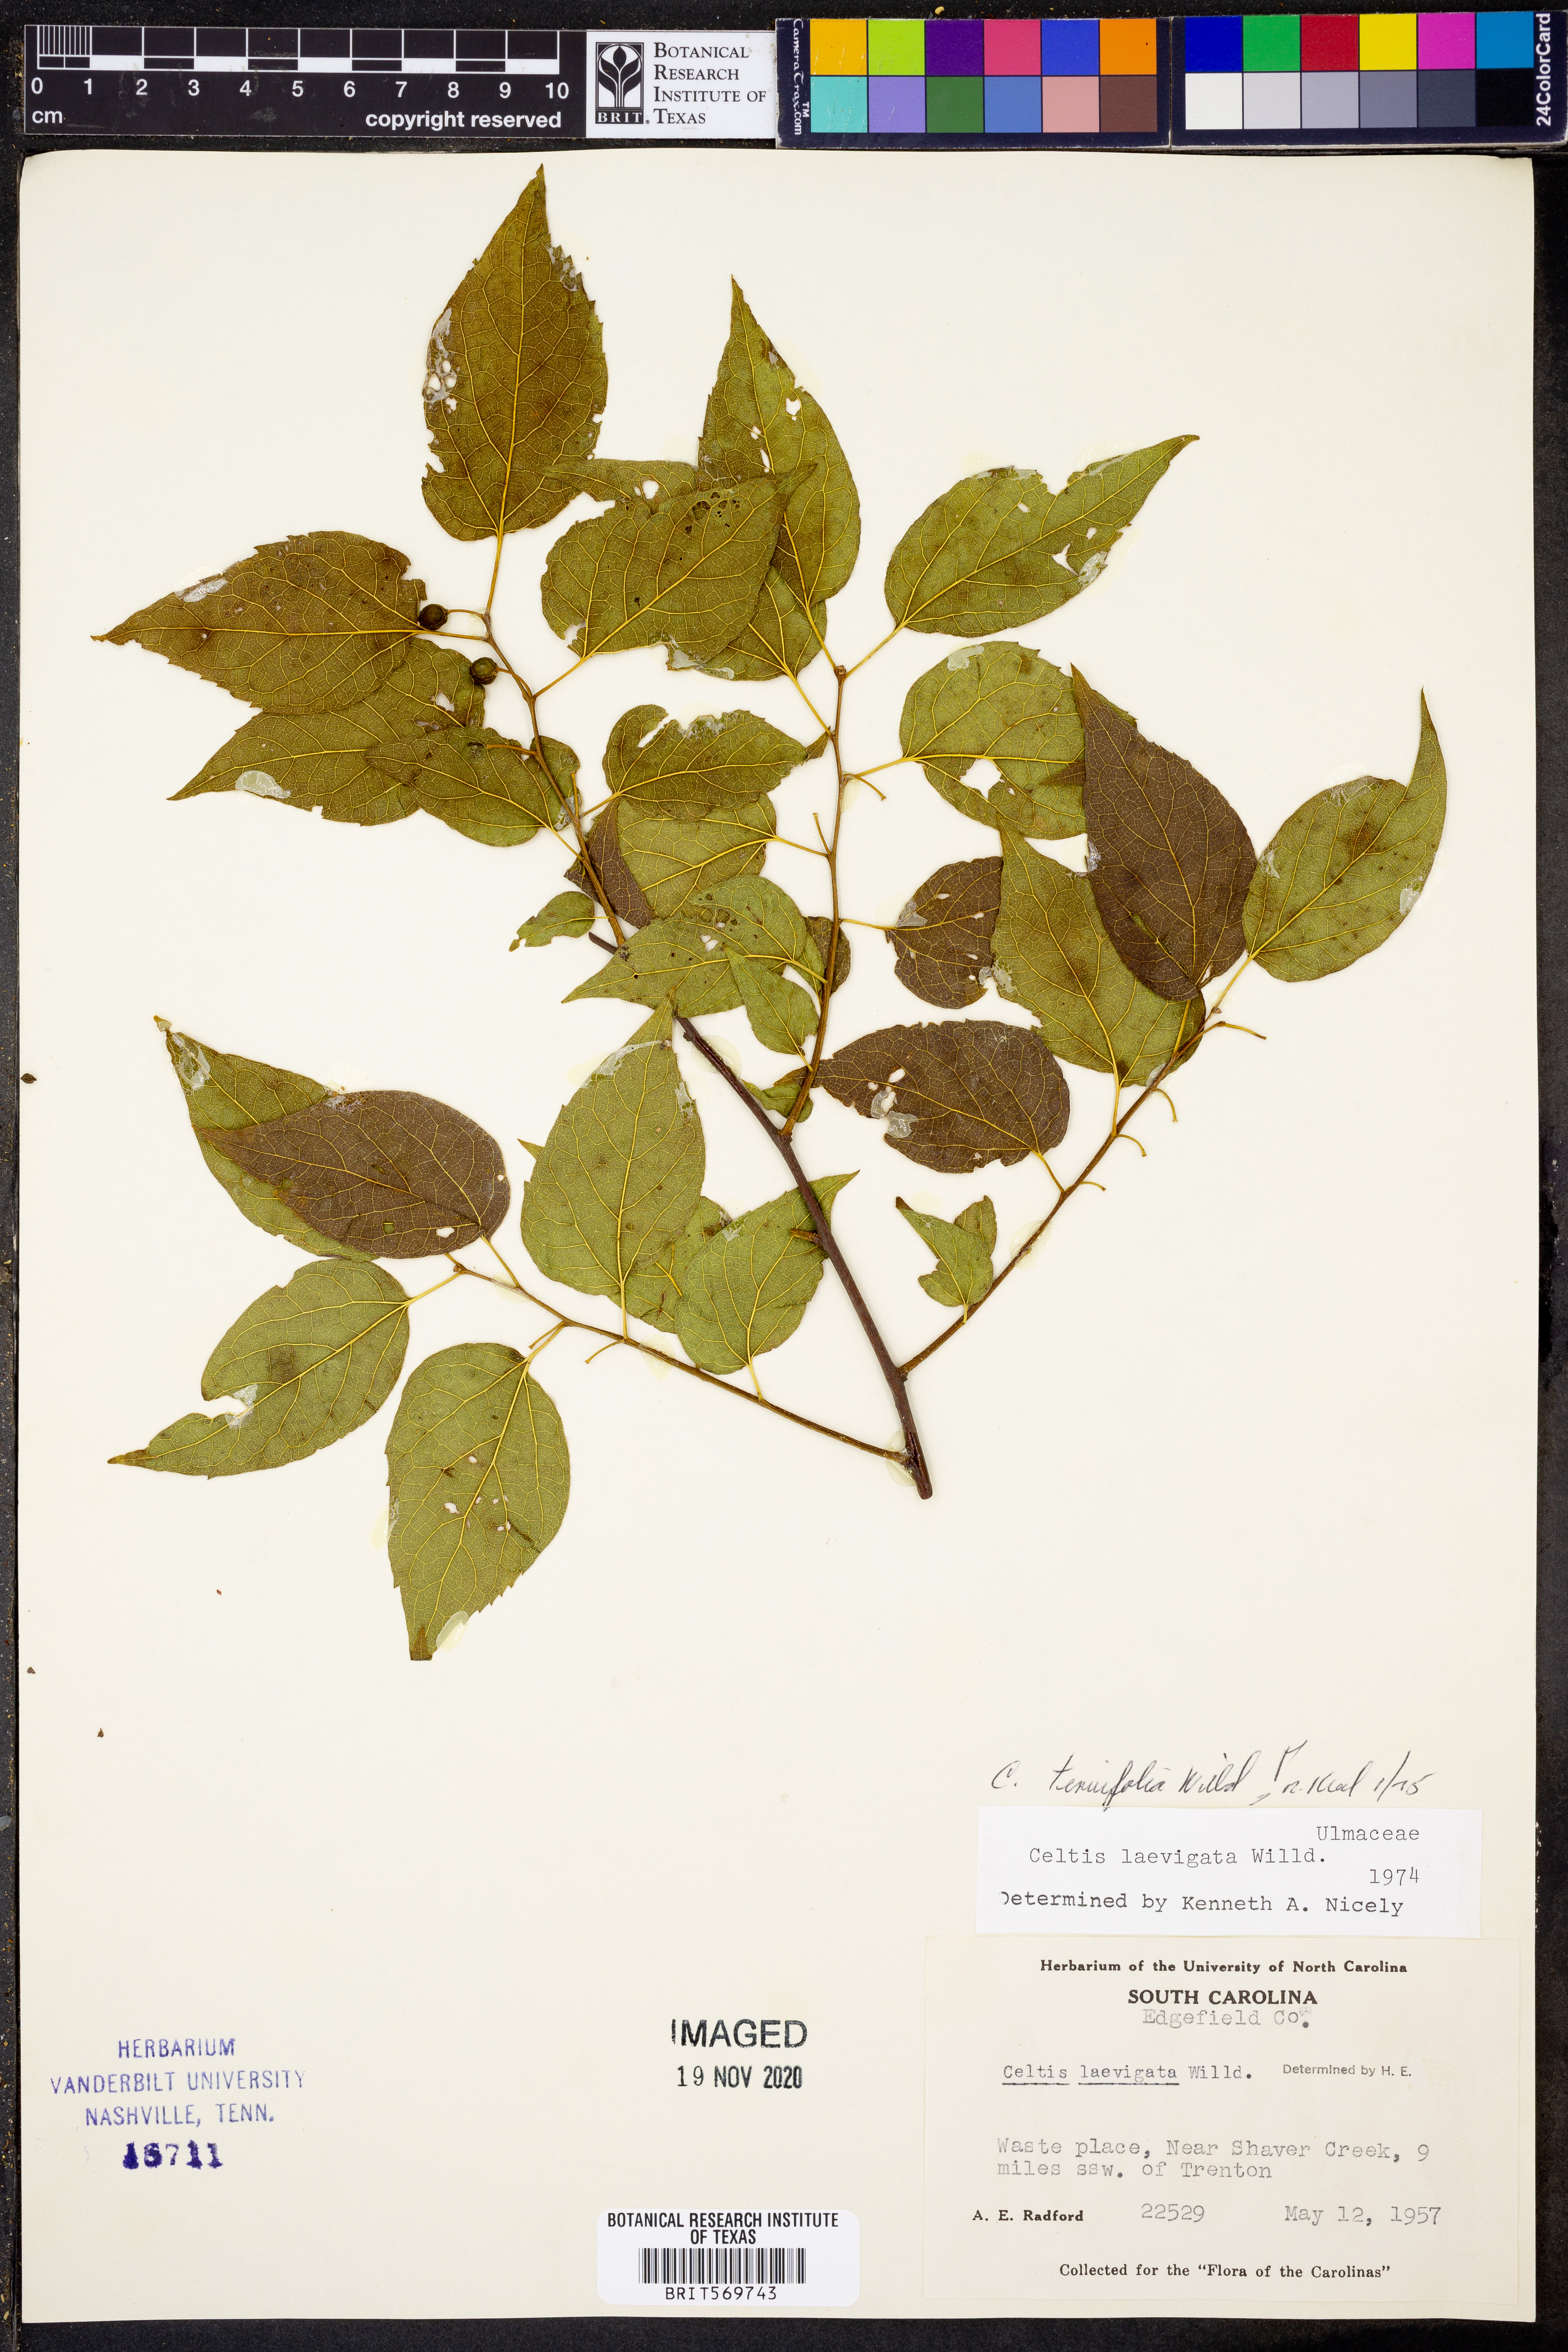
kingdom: Plantae
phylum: Tracheophyta
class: Magnoliopsida
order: Rosales
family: Cannabaceae
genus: Celtis
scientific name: Celtis tenuifolia
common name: Georgia hackberry
